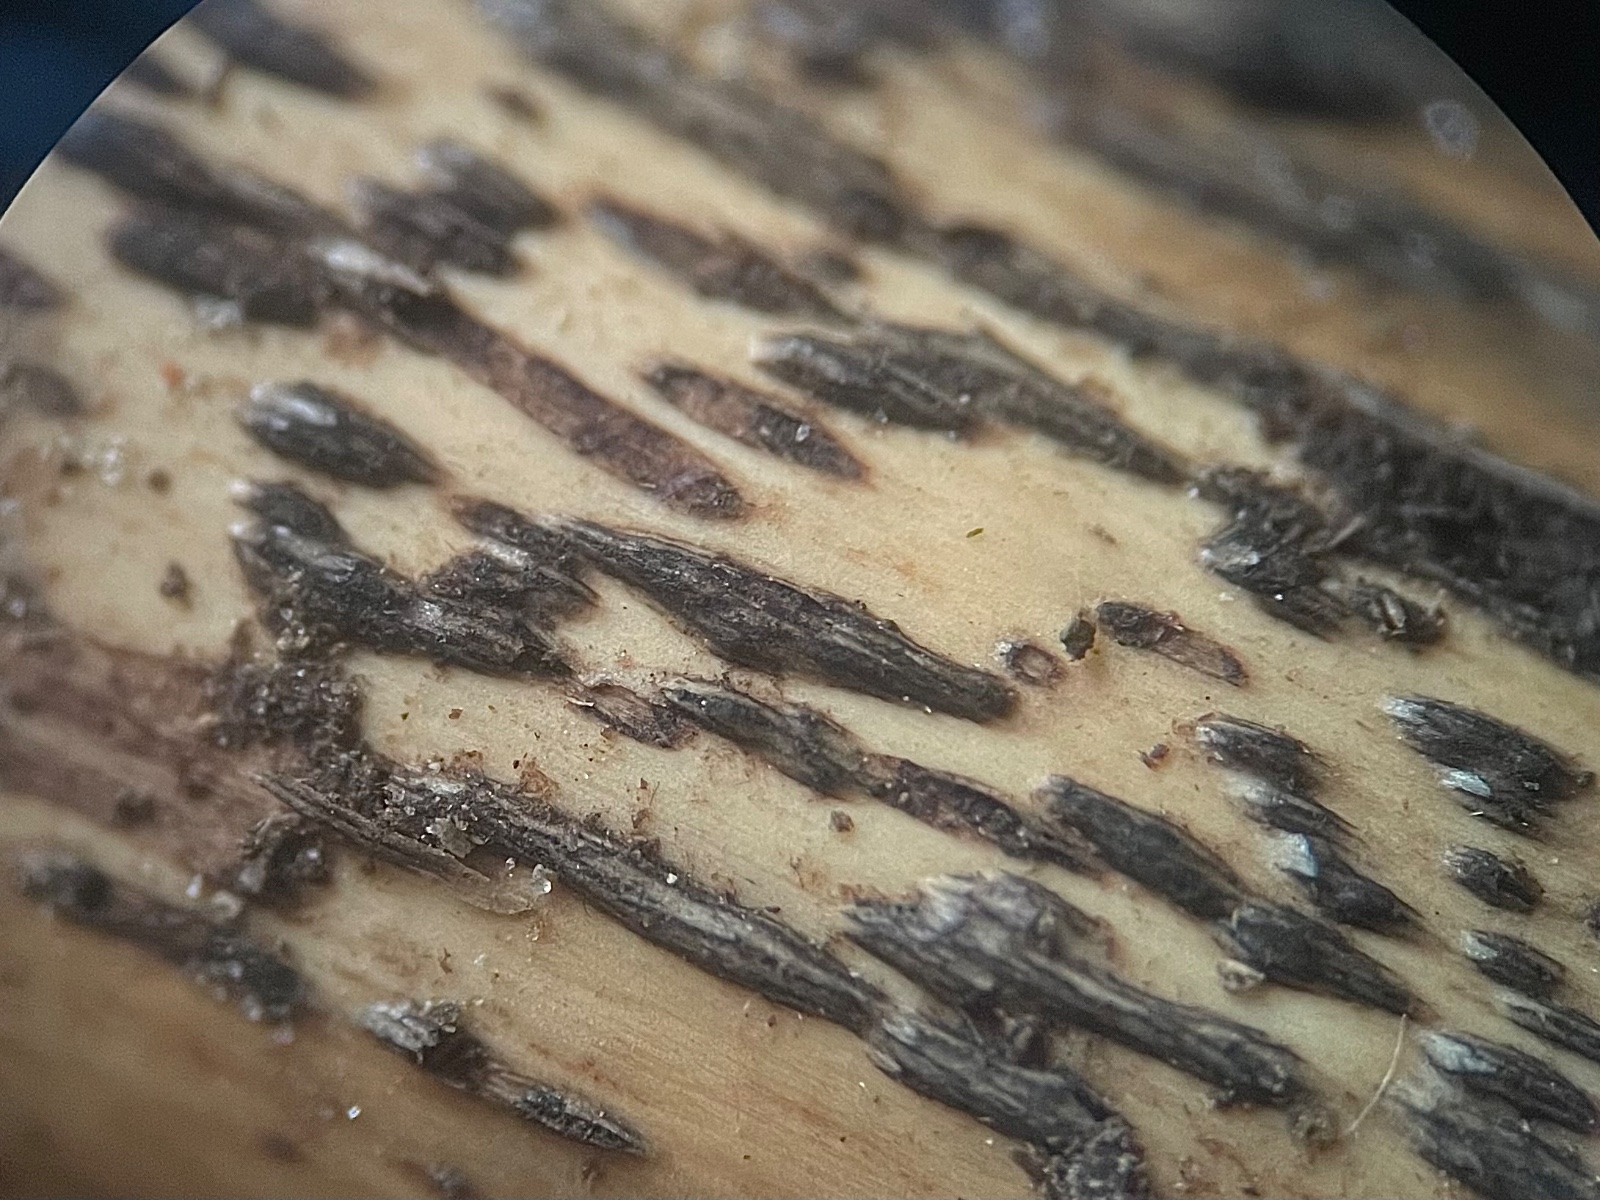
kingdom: Plantae
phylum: Bryophyta
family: Dothideomycetes
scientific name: Dothideomycetes
